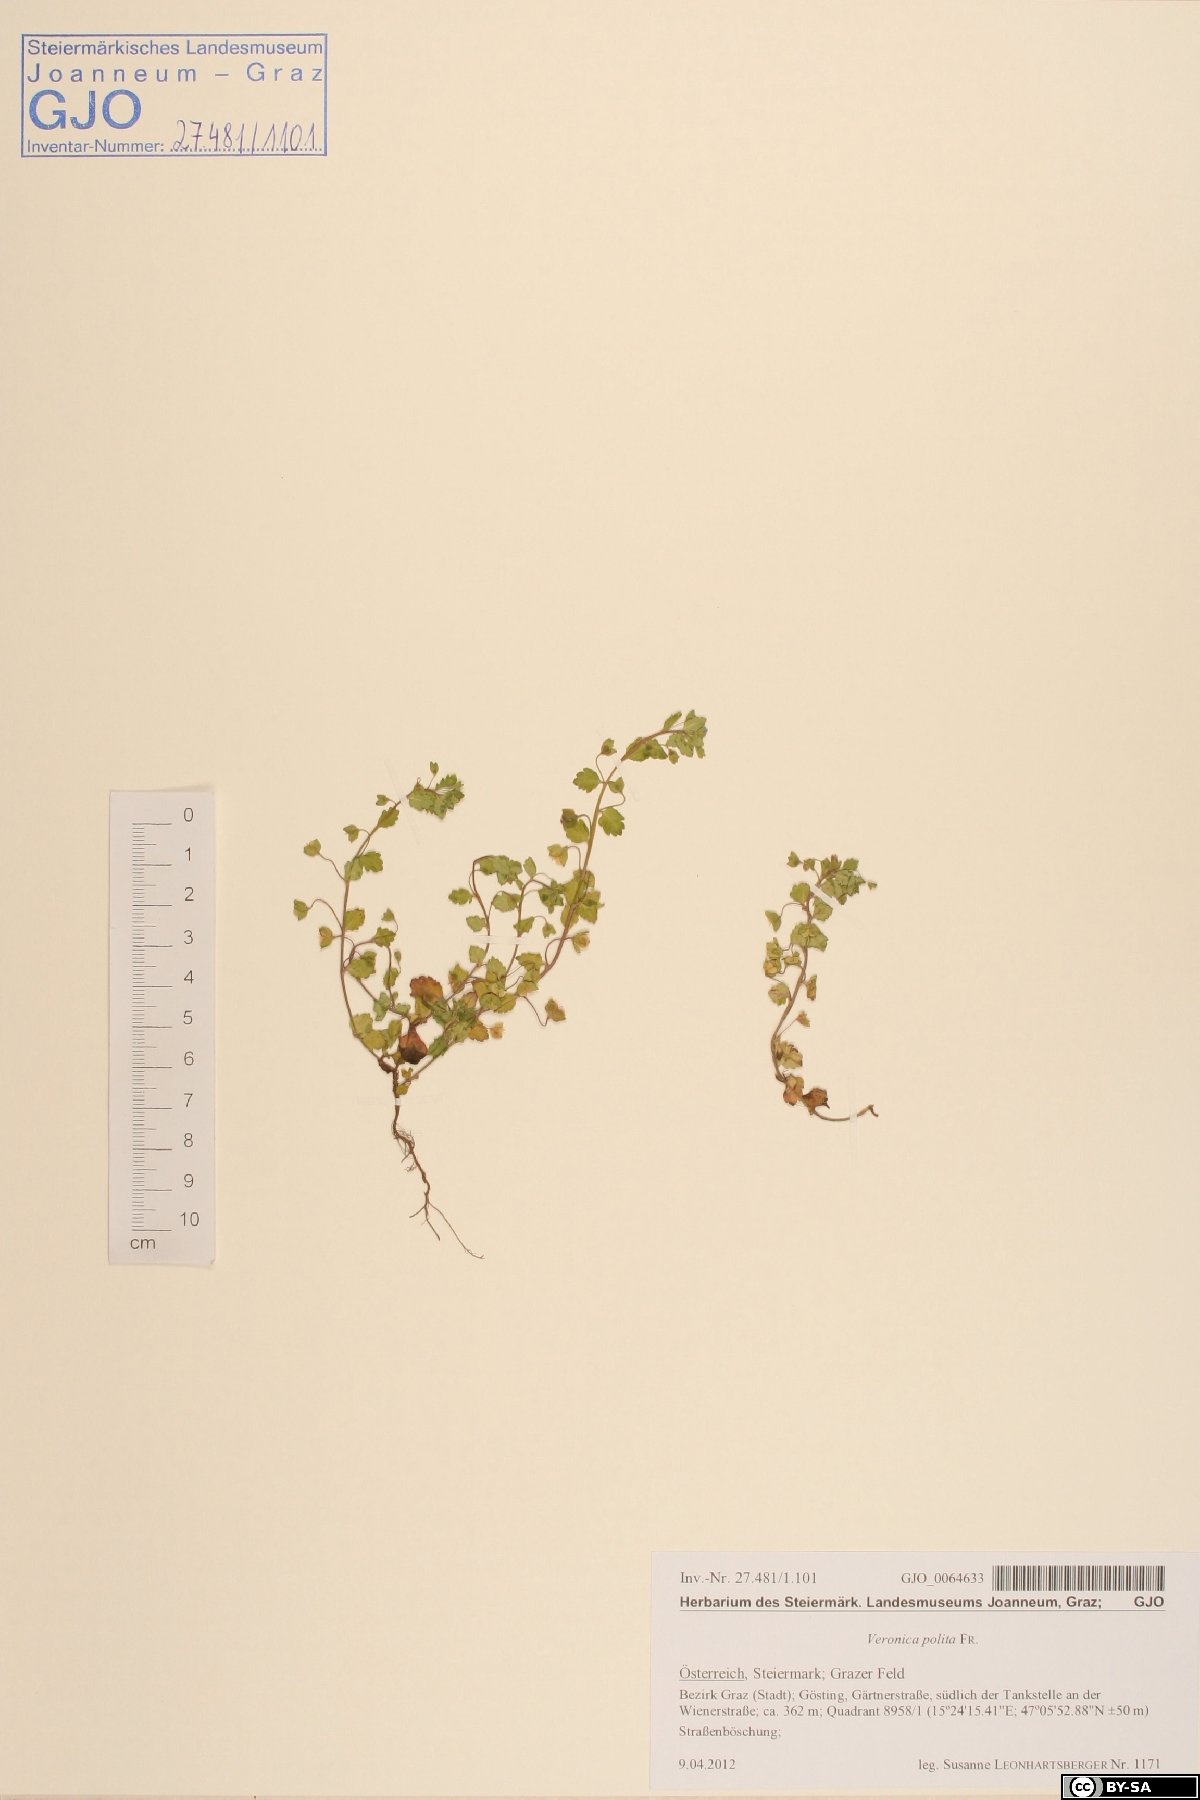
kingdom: Plantae
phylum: Tracheophyta
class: Magnoliopsida
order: Lamiales
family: Plantaginaceae
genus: Veronica
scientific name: Veronica polita
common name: Grey field-speedwell
